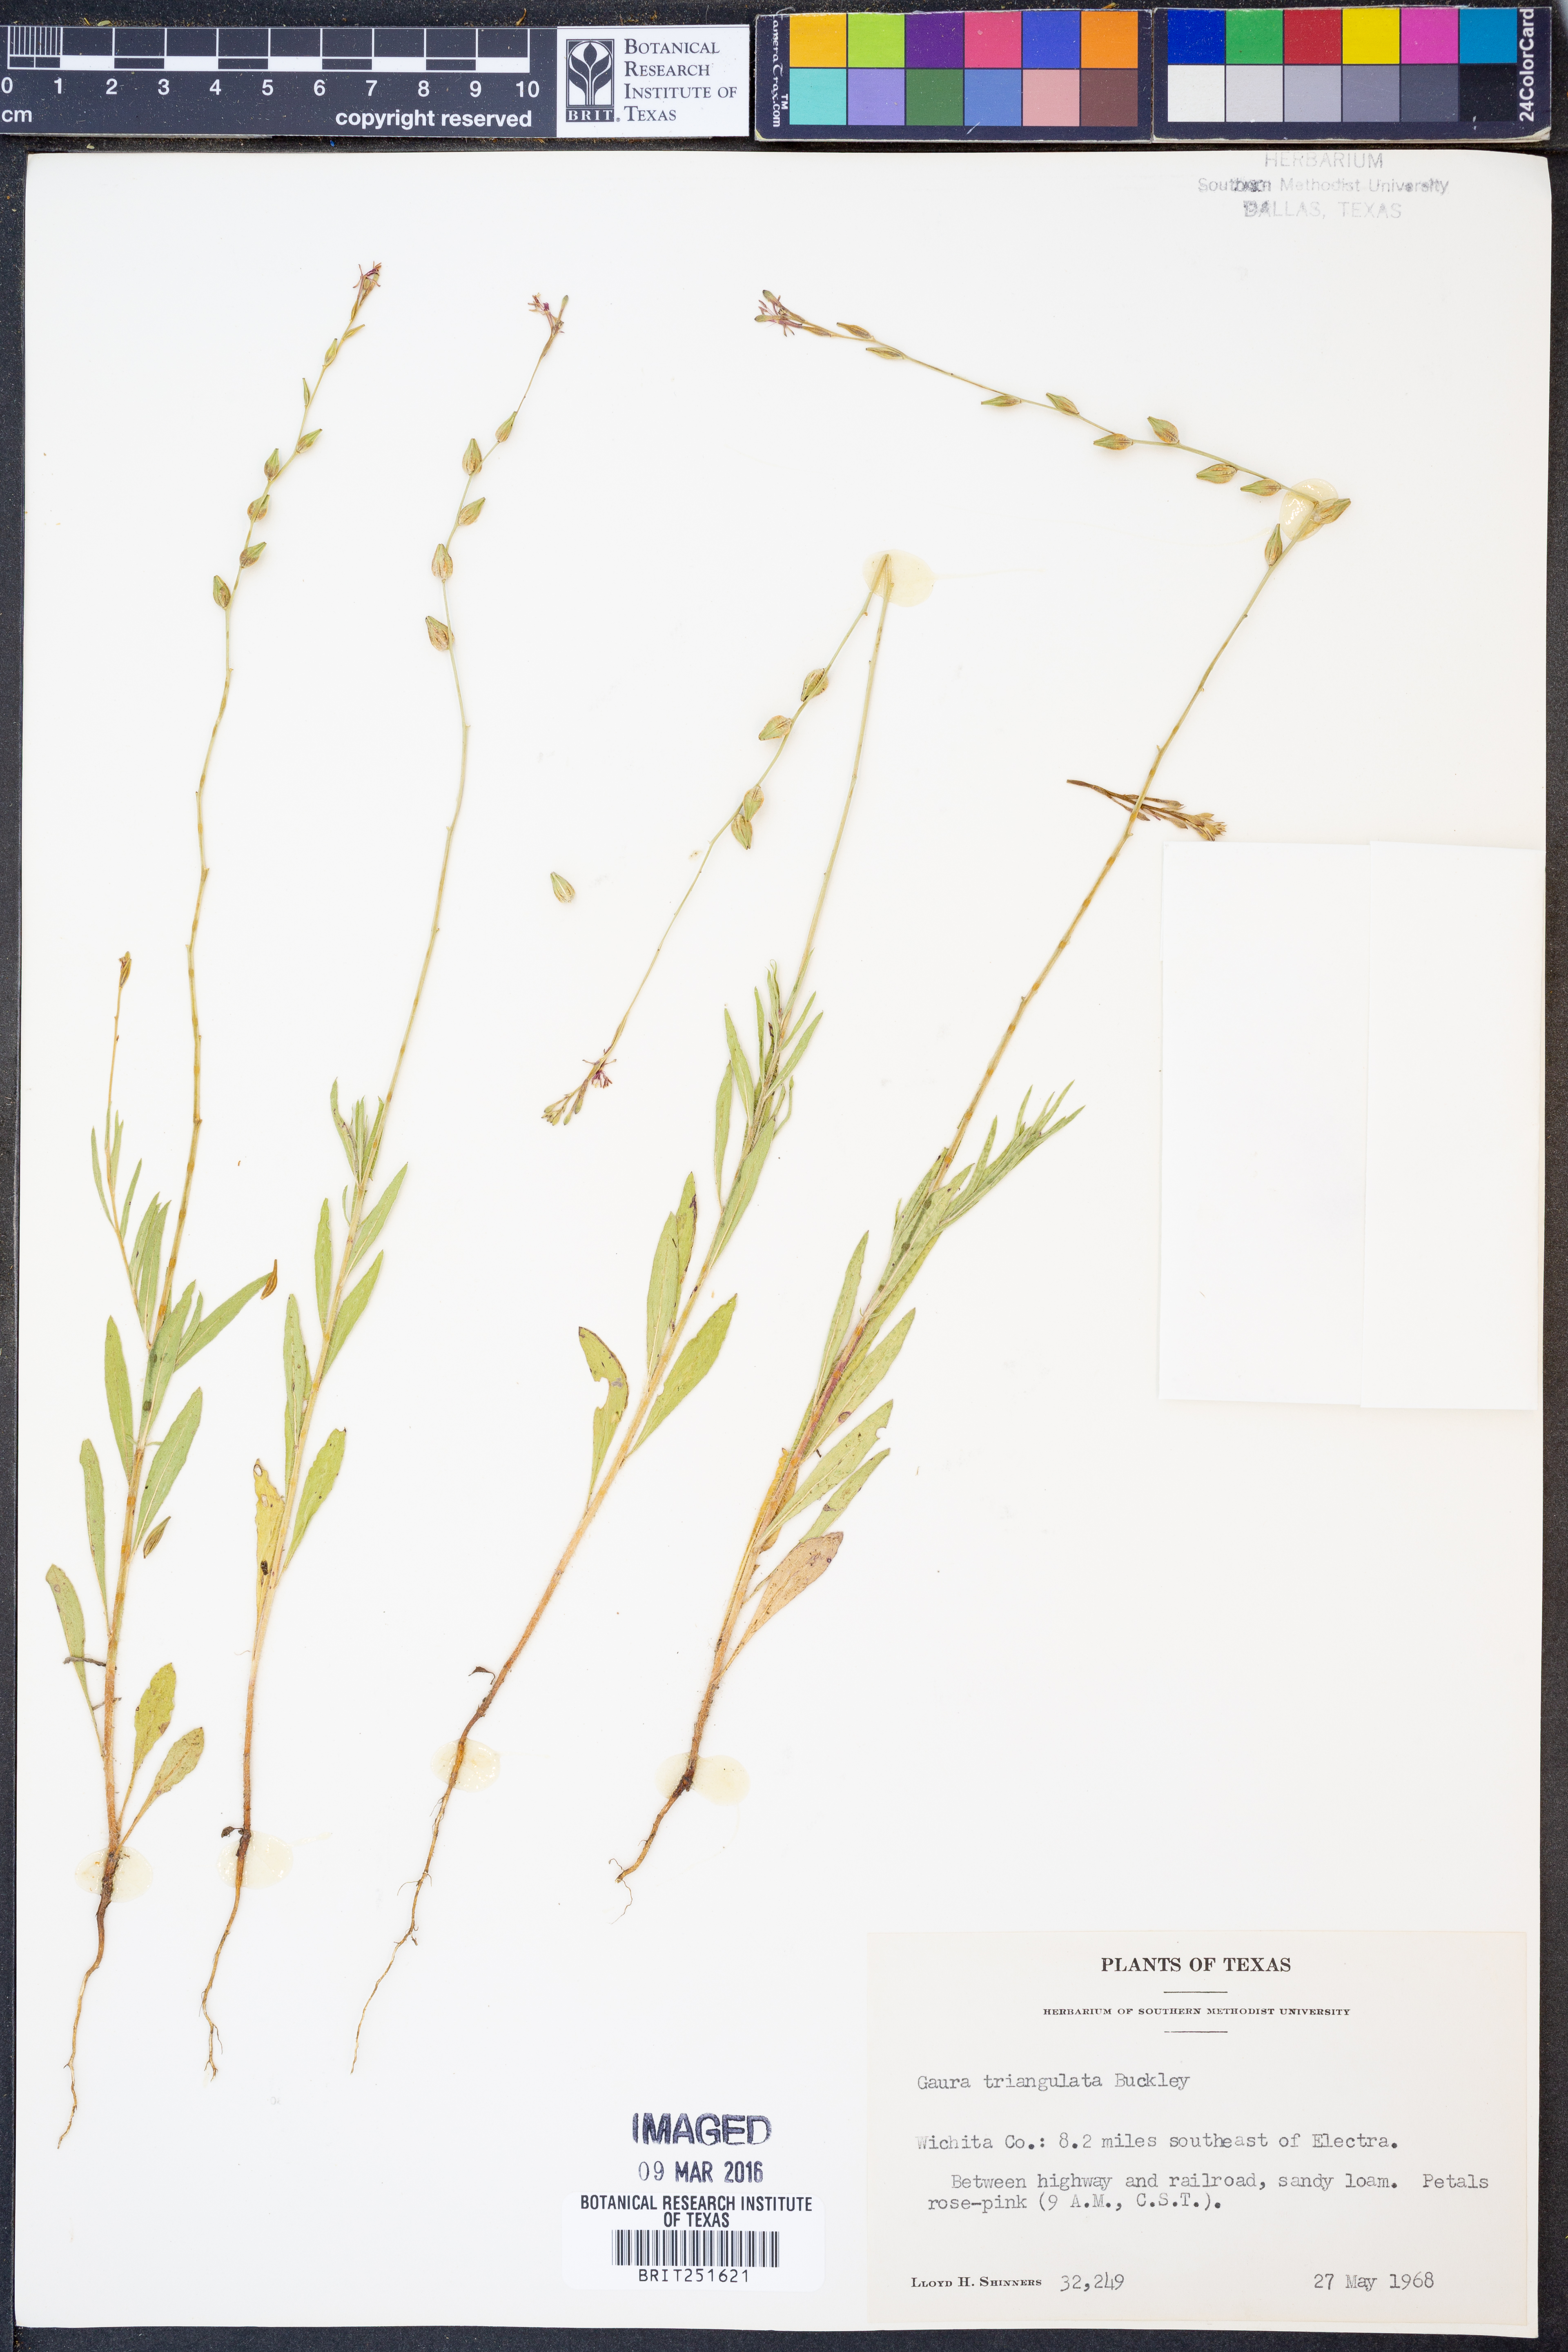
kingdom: Plantae
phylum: Tracheophyta
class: Magnoliopsida
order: Myrtales
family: Onagraceae
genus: Oenothera
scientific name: Oenothera triangulata
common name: Prairie beeblossom
